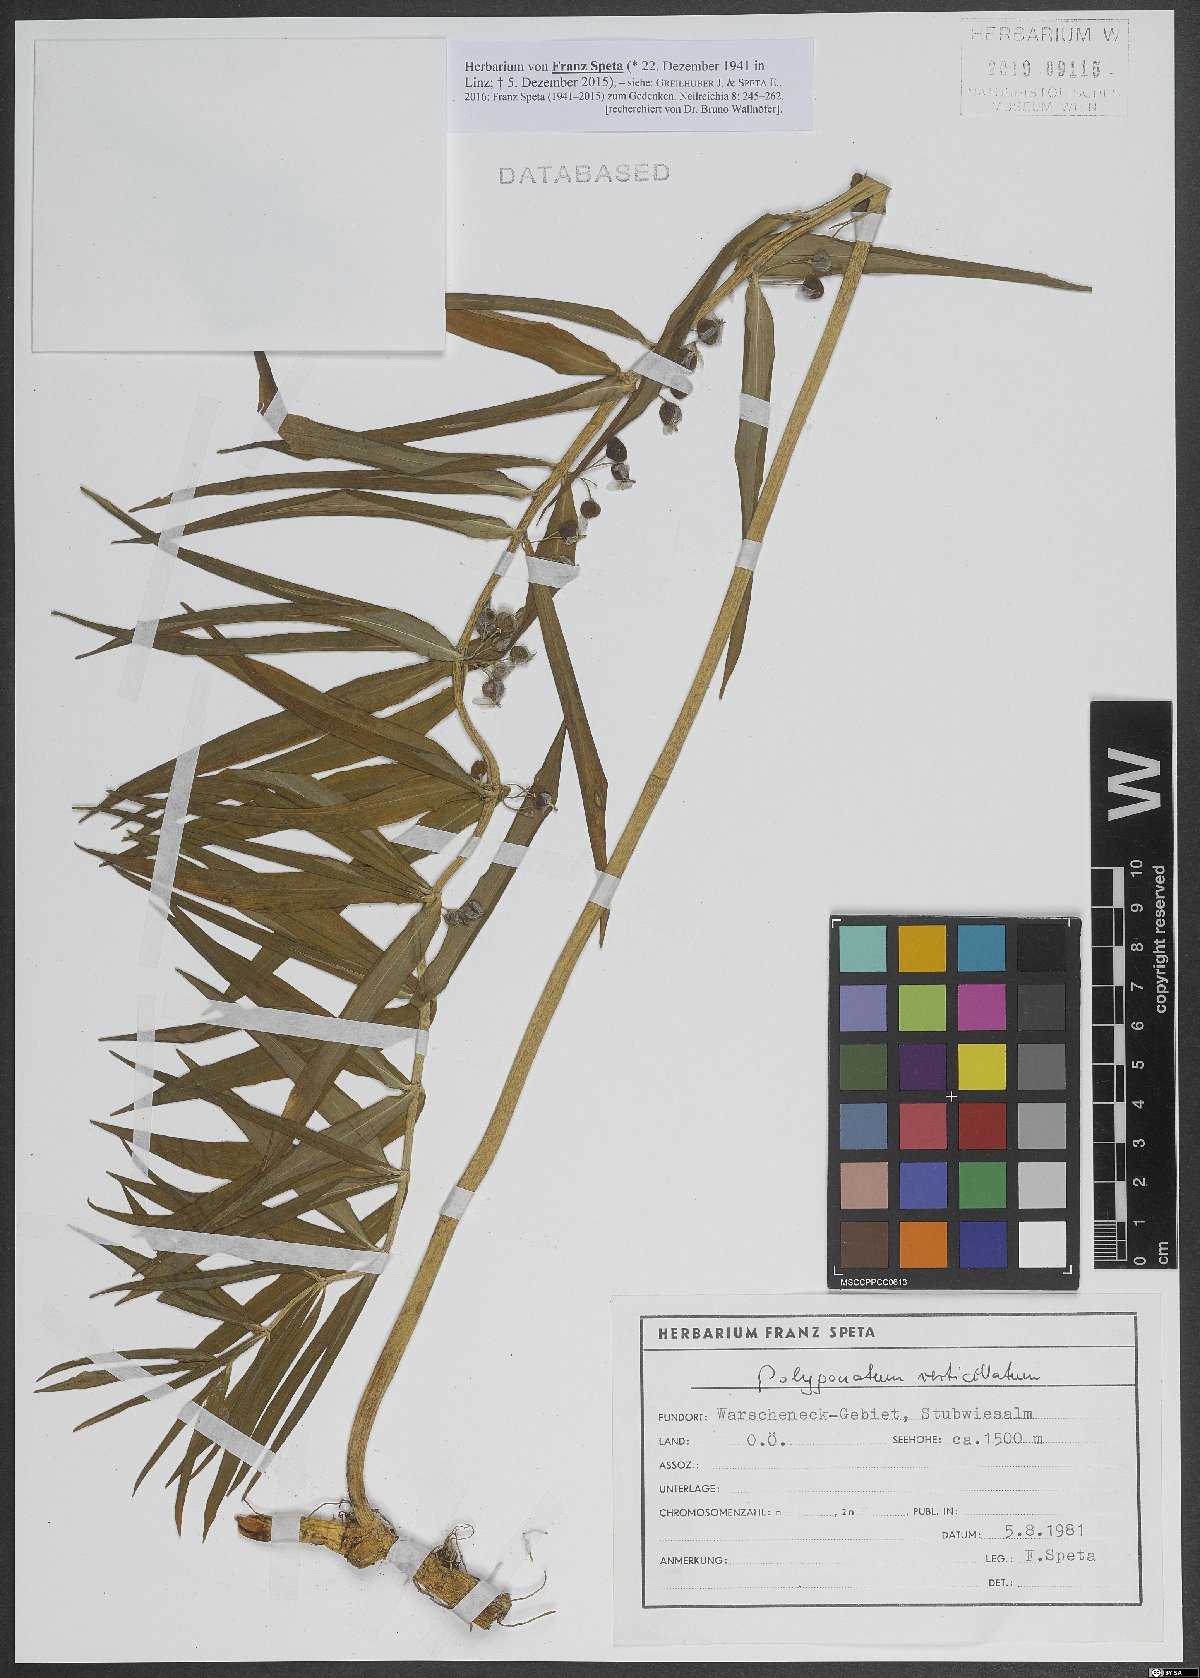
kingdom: Plantae
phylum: Tracheophyta
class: Liliopsida
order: Asparagales
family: Asparagaceae
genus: Polygonatum
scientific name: Polygonatum verticillatum
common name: Whorled solomon's-seal
